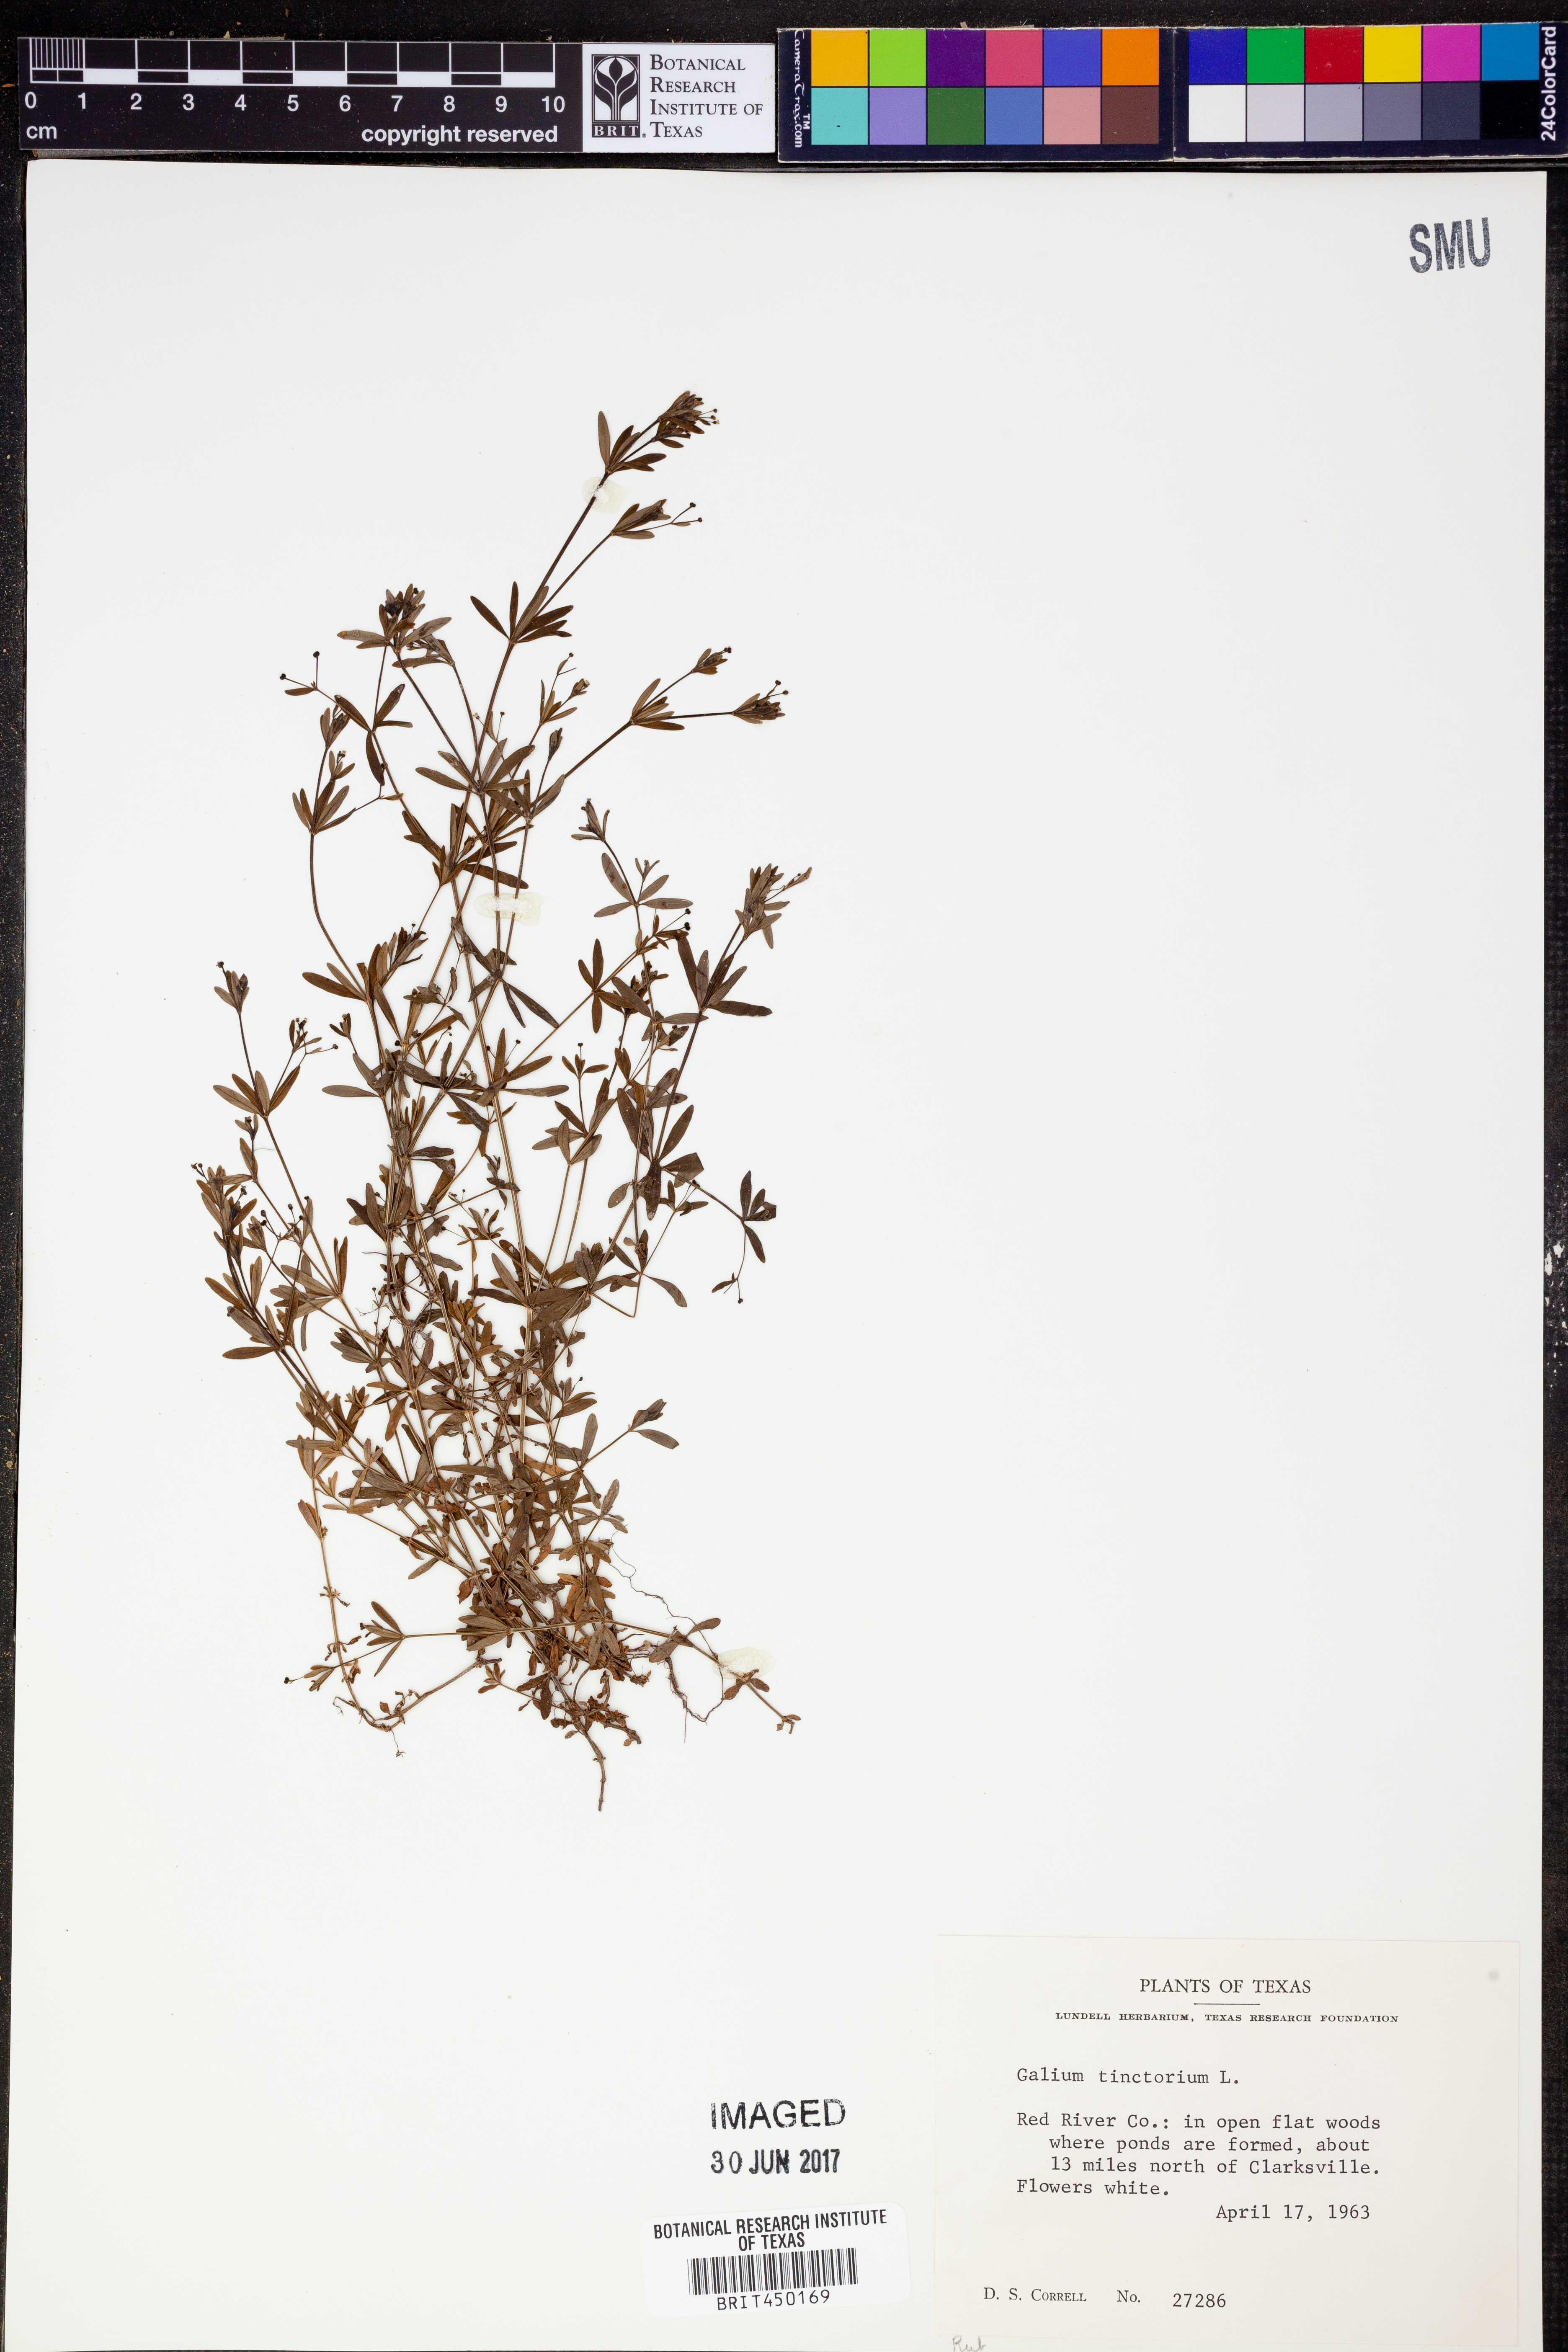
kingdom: Plantae
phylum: Tracheophyta
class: Magnoliopsida
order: Gentianales
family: Rubiaceae
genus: Asperula
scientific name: Asperula tinctoria
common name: Dyer's woodruff
